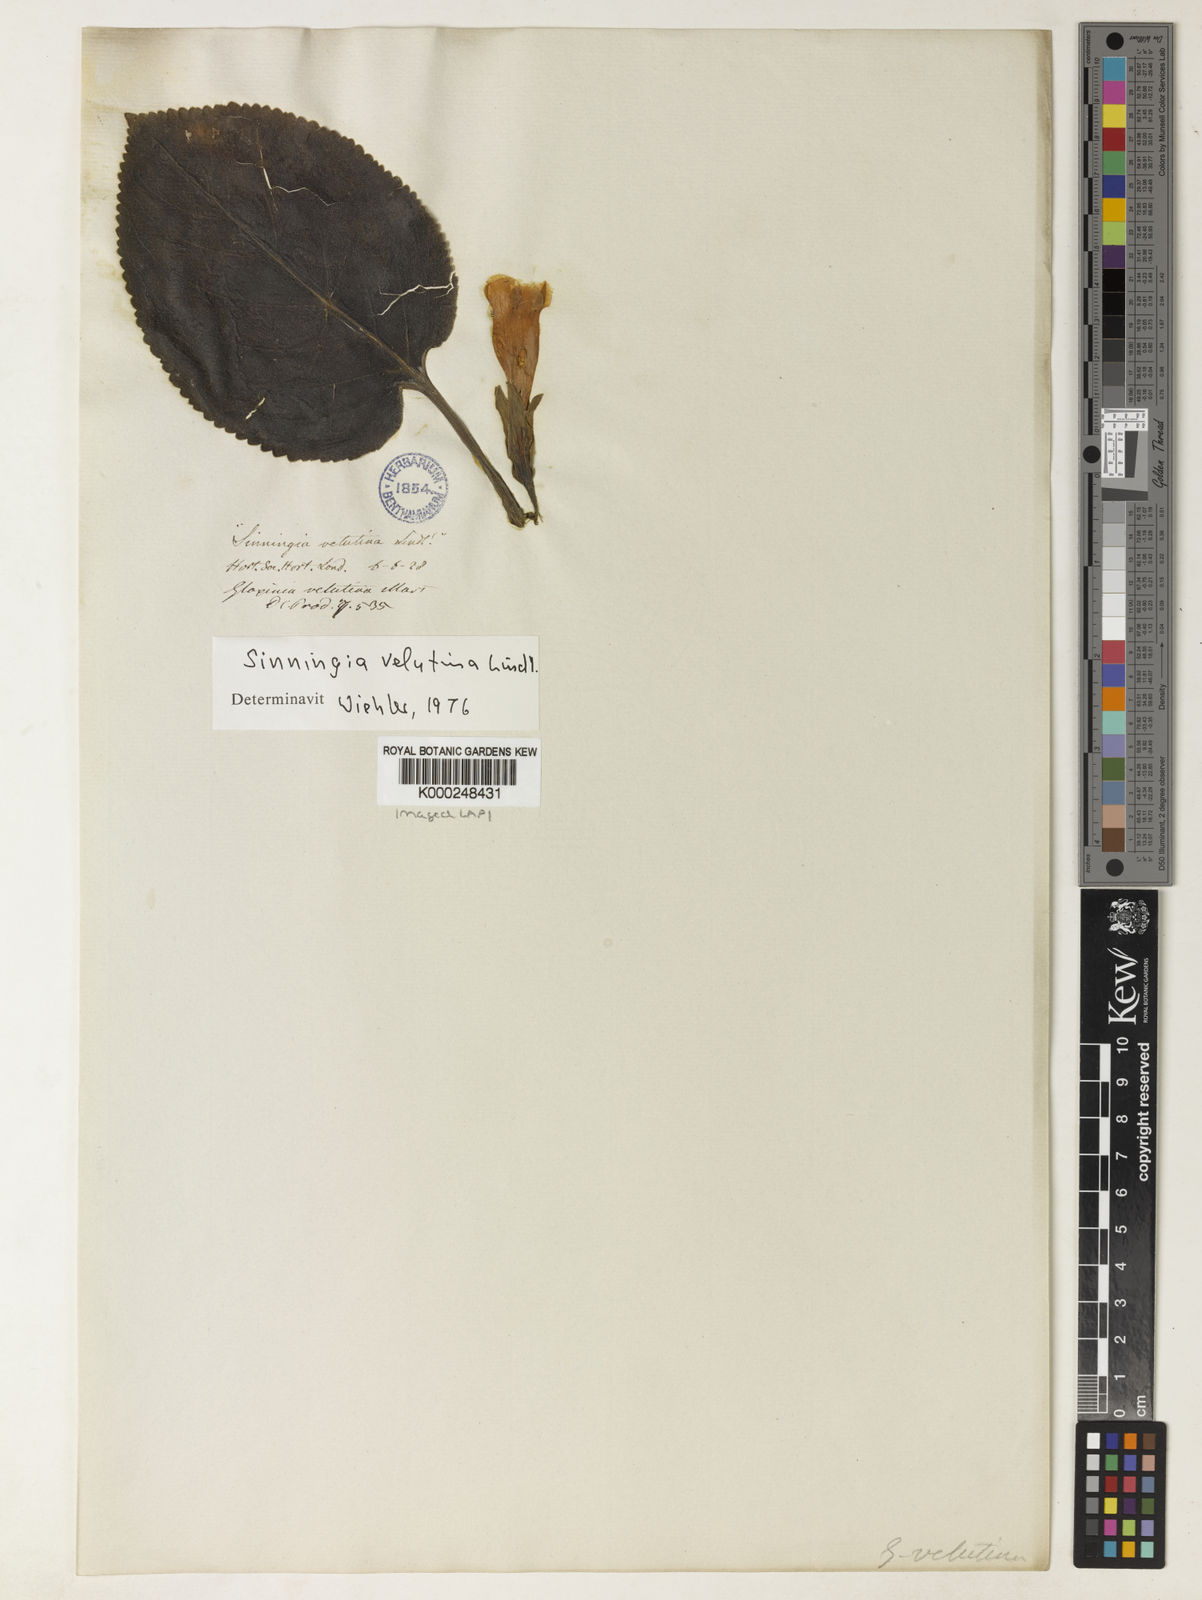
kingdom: Plantae
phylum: Tracheophyta
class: Magnoliopsida
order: Lamiales
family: Gesneriaceae
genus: Sinningia
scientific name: Sinningia velutina
